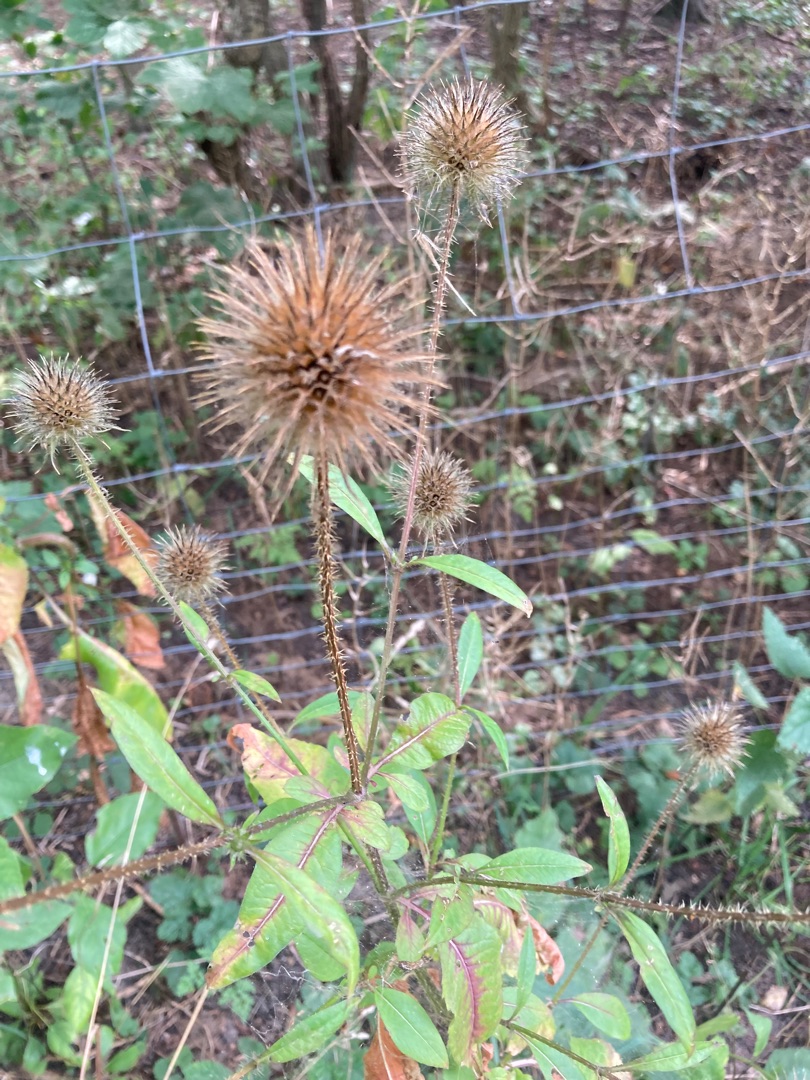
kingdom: Plantae
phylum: Tracheophyta
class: Magnoliopsida
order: Dipsacales
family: Caprifoliaceae
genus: Dipsacus
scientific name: Dipsacus strigosus
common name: Pindsvin-kartebolle
